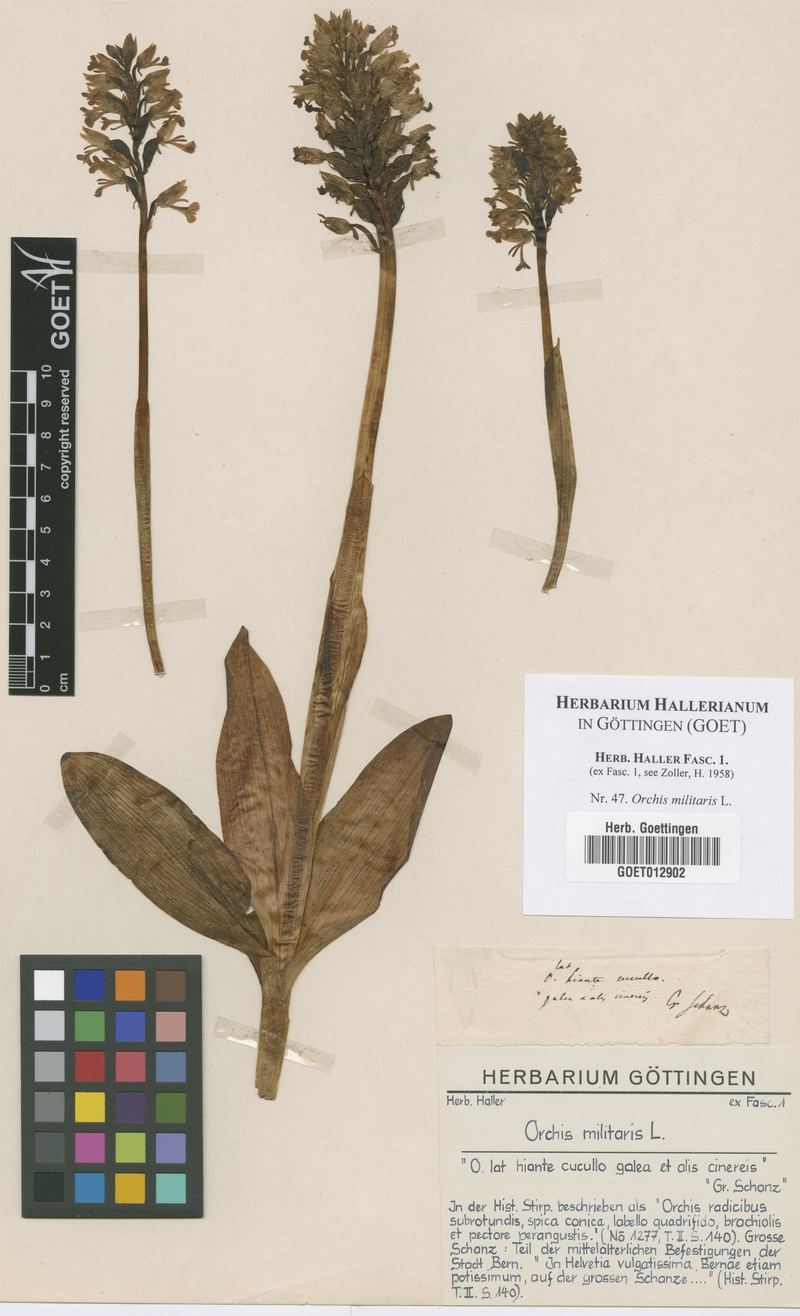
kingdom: Plantae
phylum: Tracheophyta
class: Liliopsida
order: Asparagales
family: Orchidaceae
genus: Orchis
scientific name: Orchis militaris
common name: Military orchid
